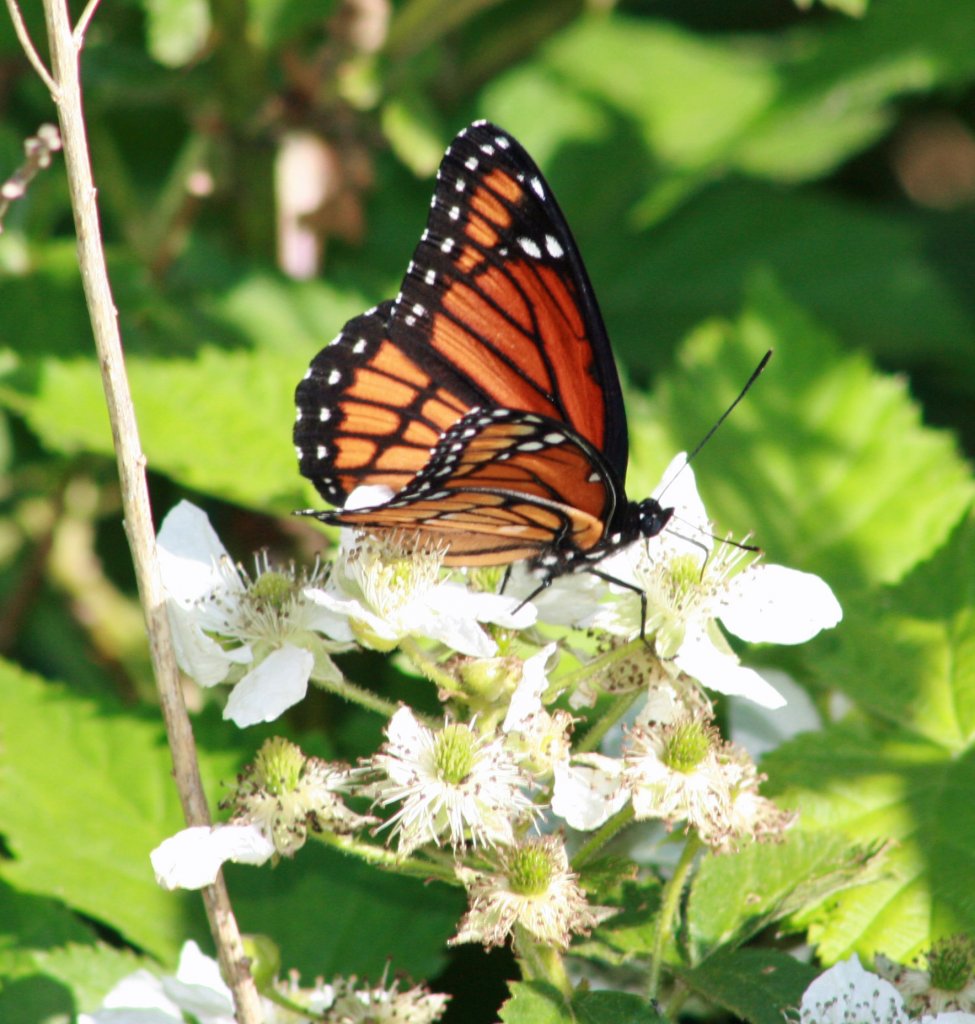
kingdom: Animalia
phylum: Arthropoda
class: Insecta
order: Lepidoptera
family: Nymphalidae
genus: Limenitis
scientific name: Limenitis archippus
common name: Viceroy
